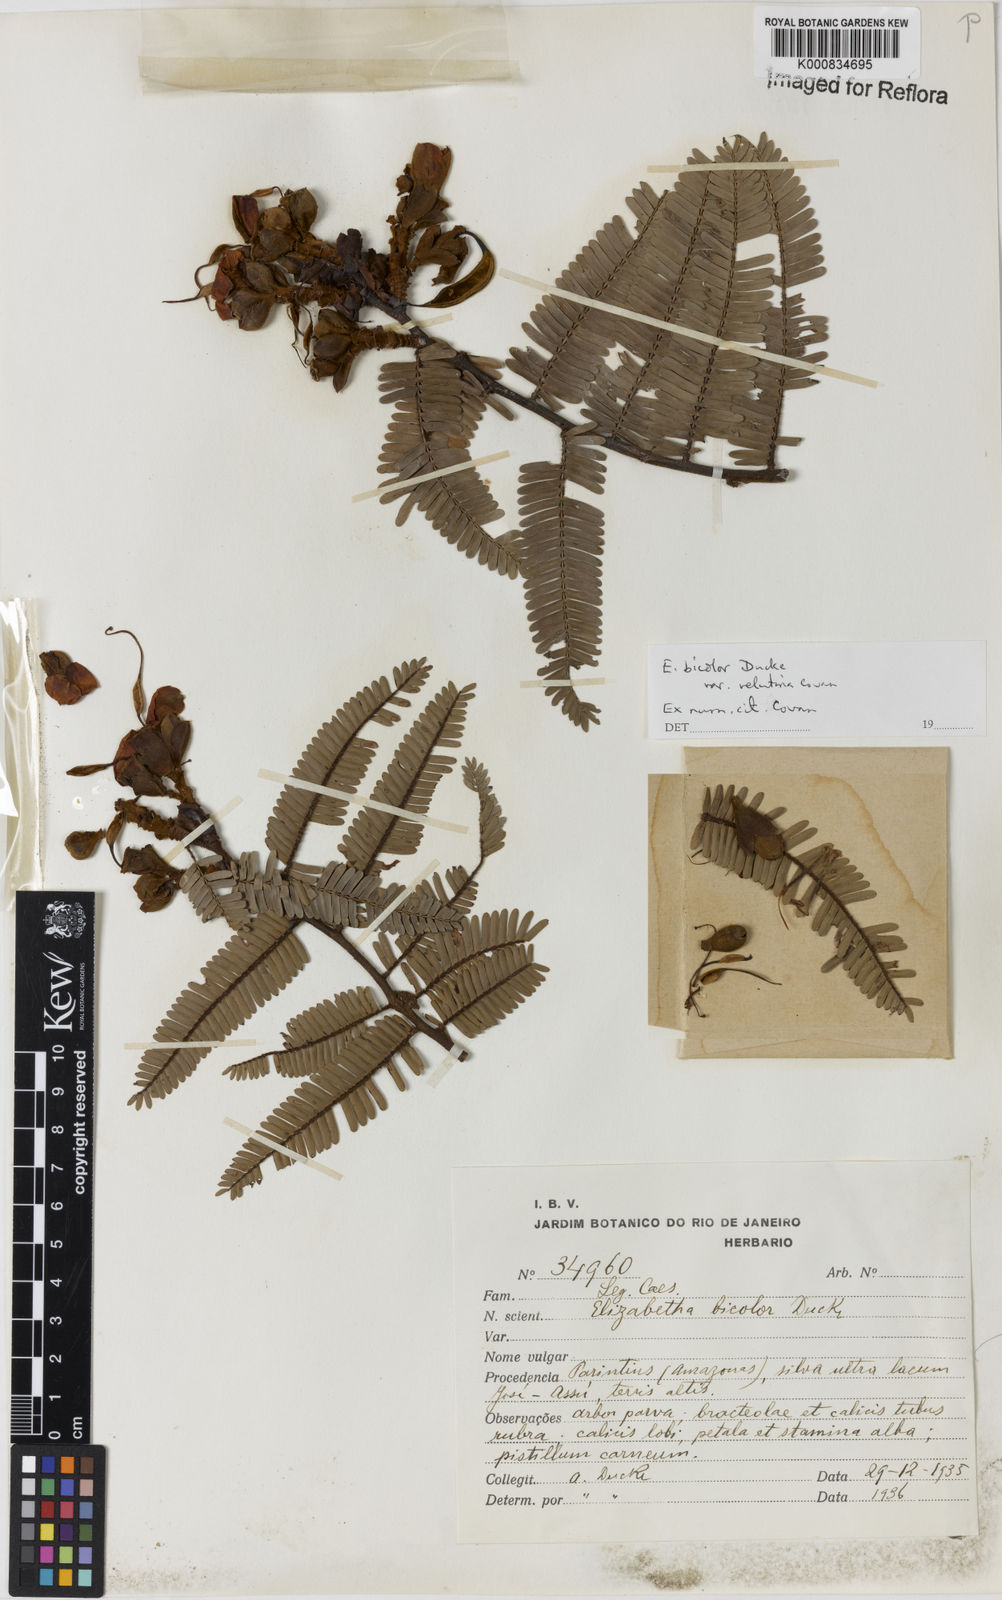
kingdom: Plantae
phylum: Tracheophyta
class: Magnoliopsida
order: Fabales
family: Fabaceae
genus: Paloue
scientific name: Paloue bicolor
